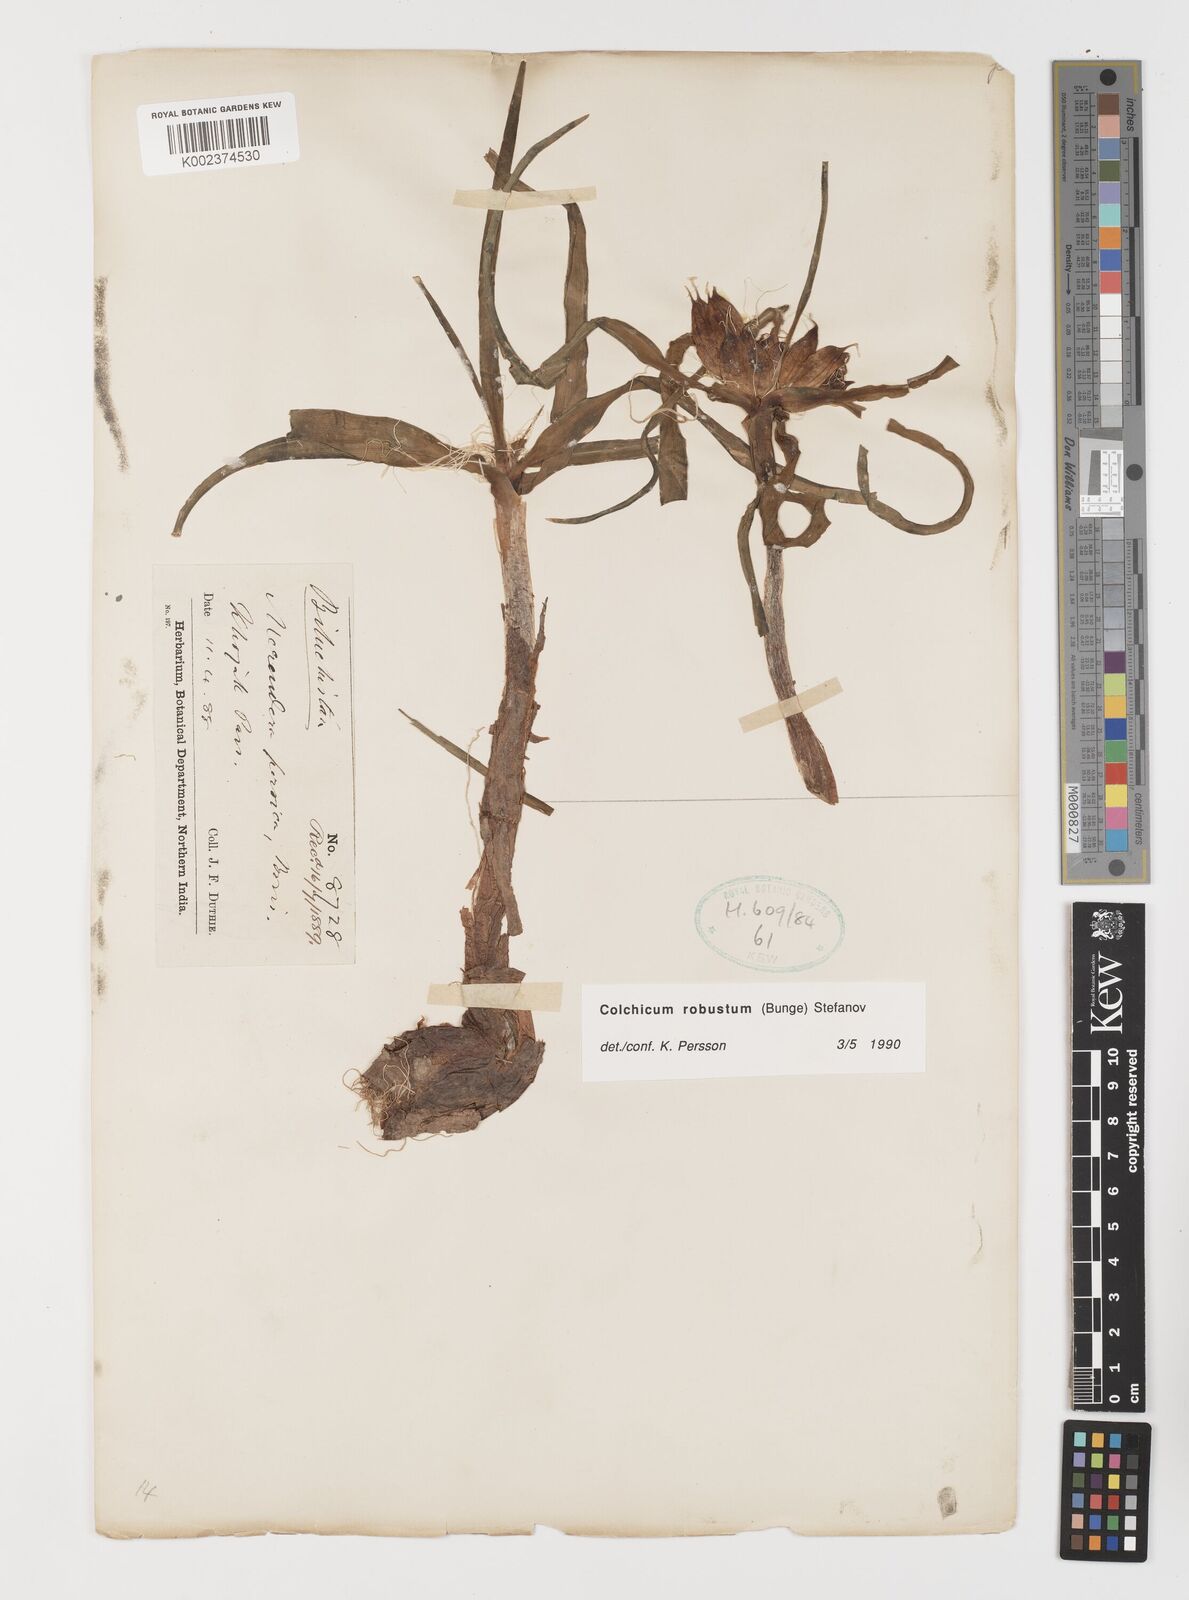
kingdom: Plantae
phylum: Tracheophyta
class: Liliopsida
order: Liliales
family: Colchicaceae
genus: Colchicum
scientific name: Colchicum robustum
